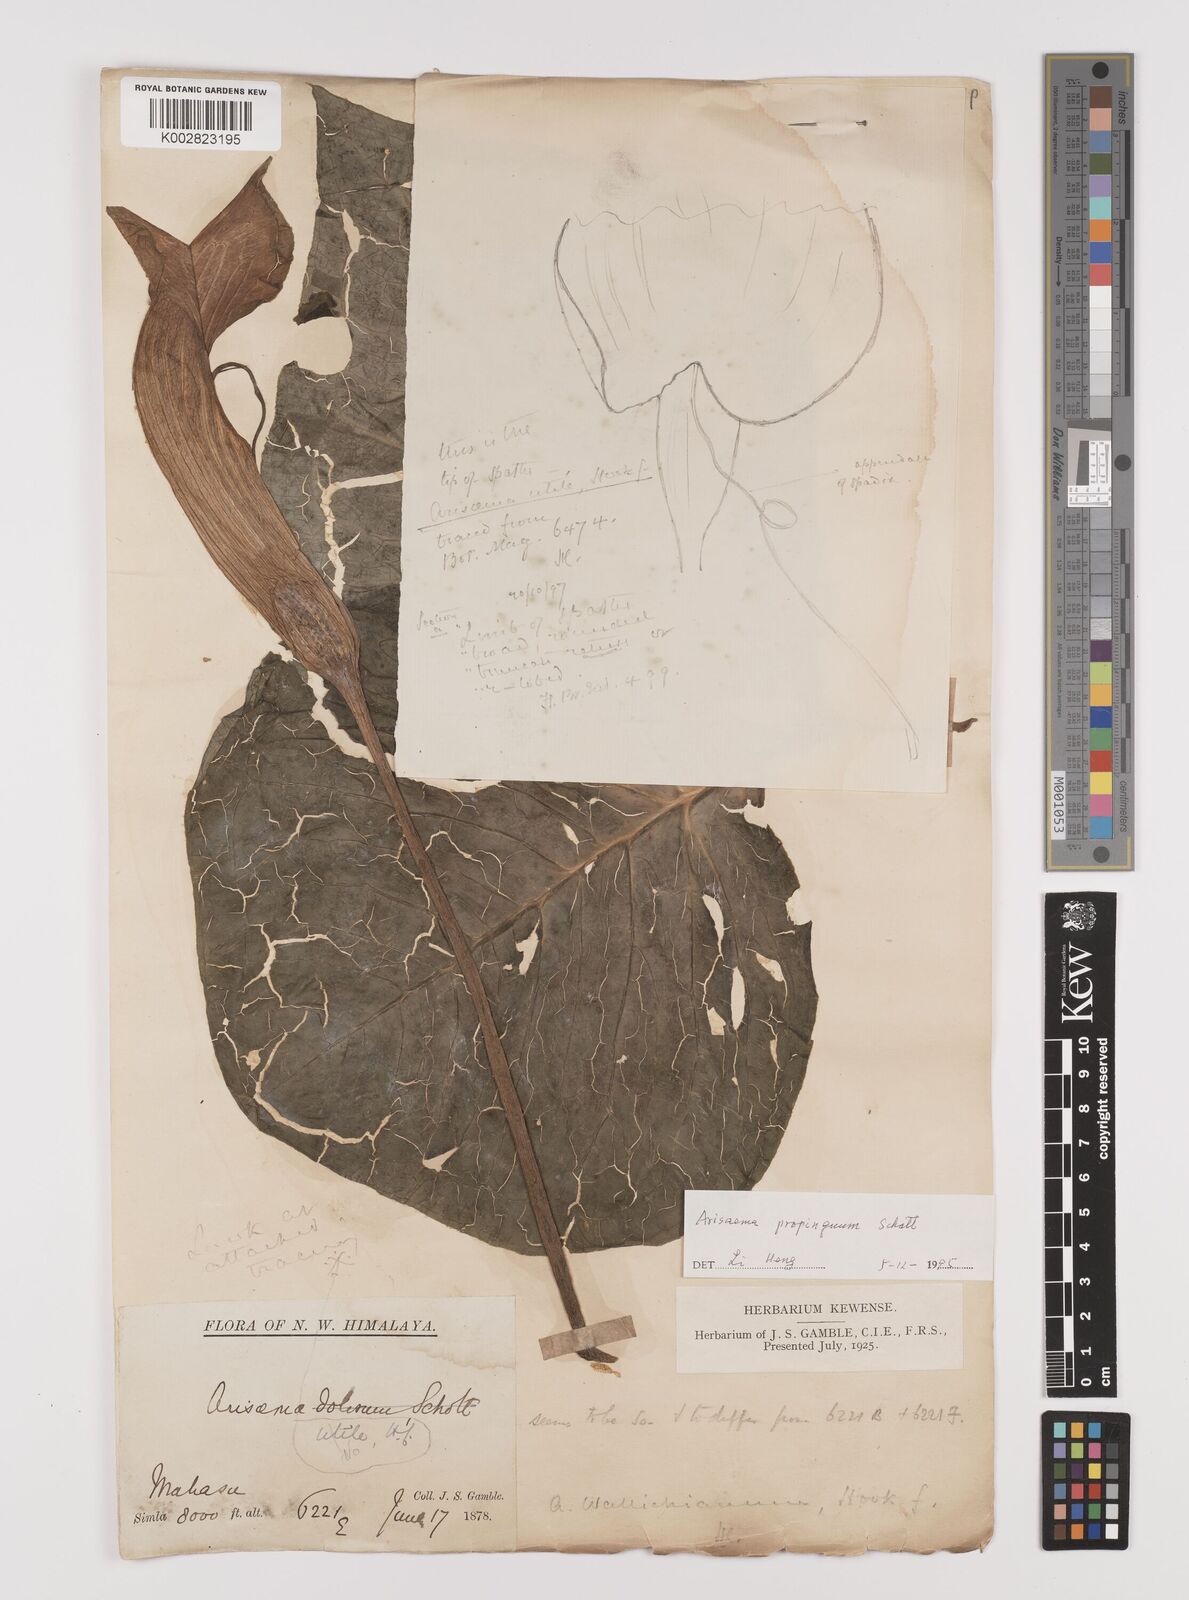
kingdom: Plantae
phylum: Tracheophyta
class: Liliopsida
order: Alismatales
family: Araceae
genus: Arisaema
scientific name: Arisaema propinquum
